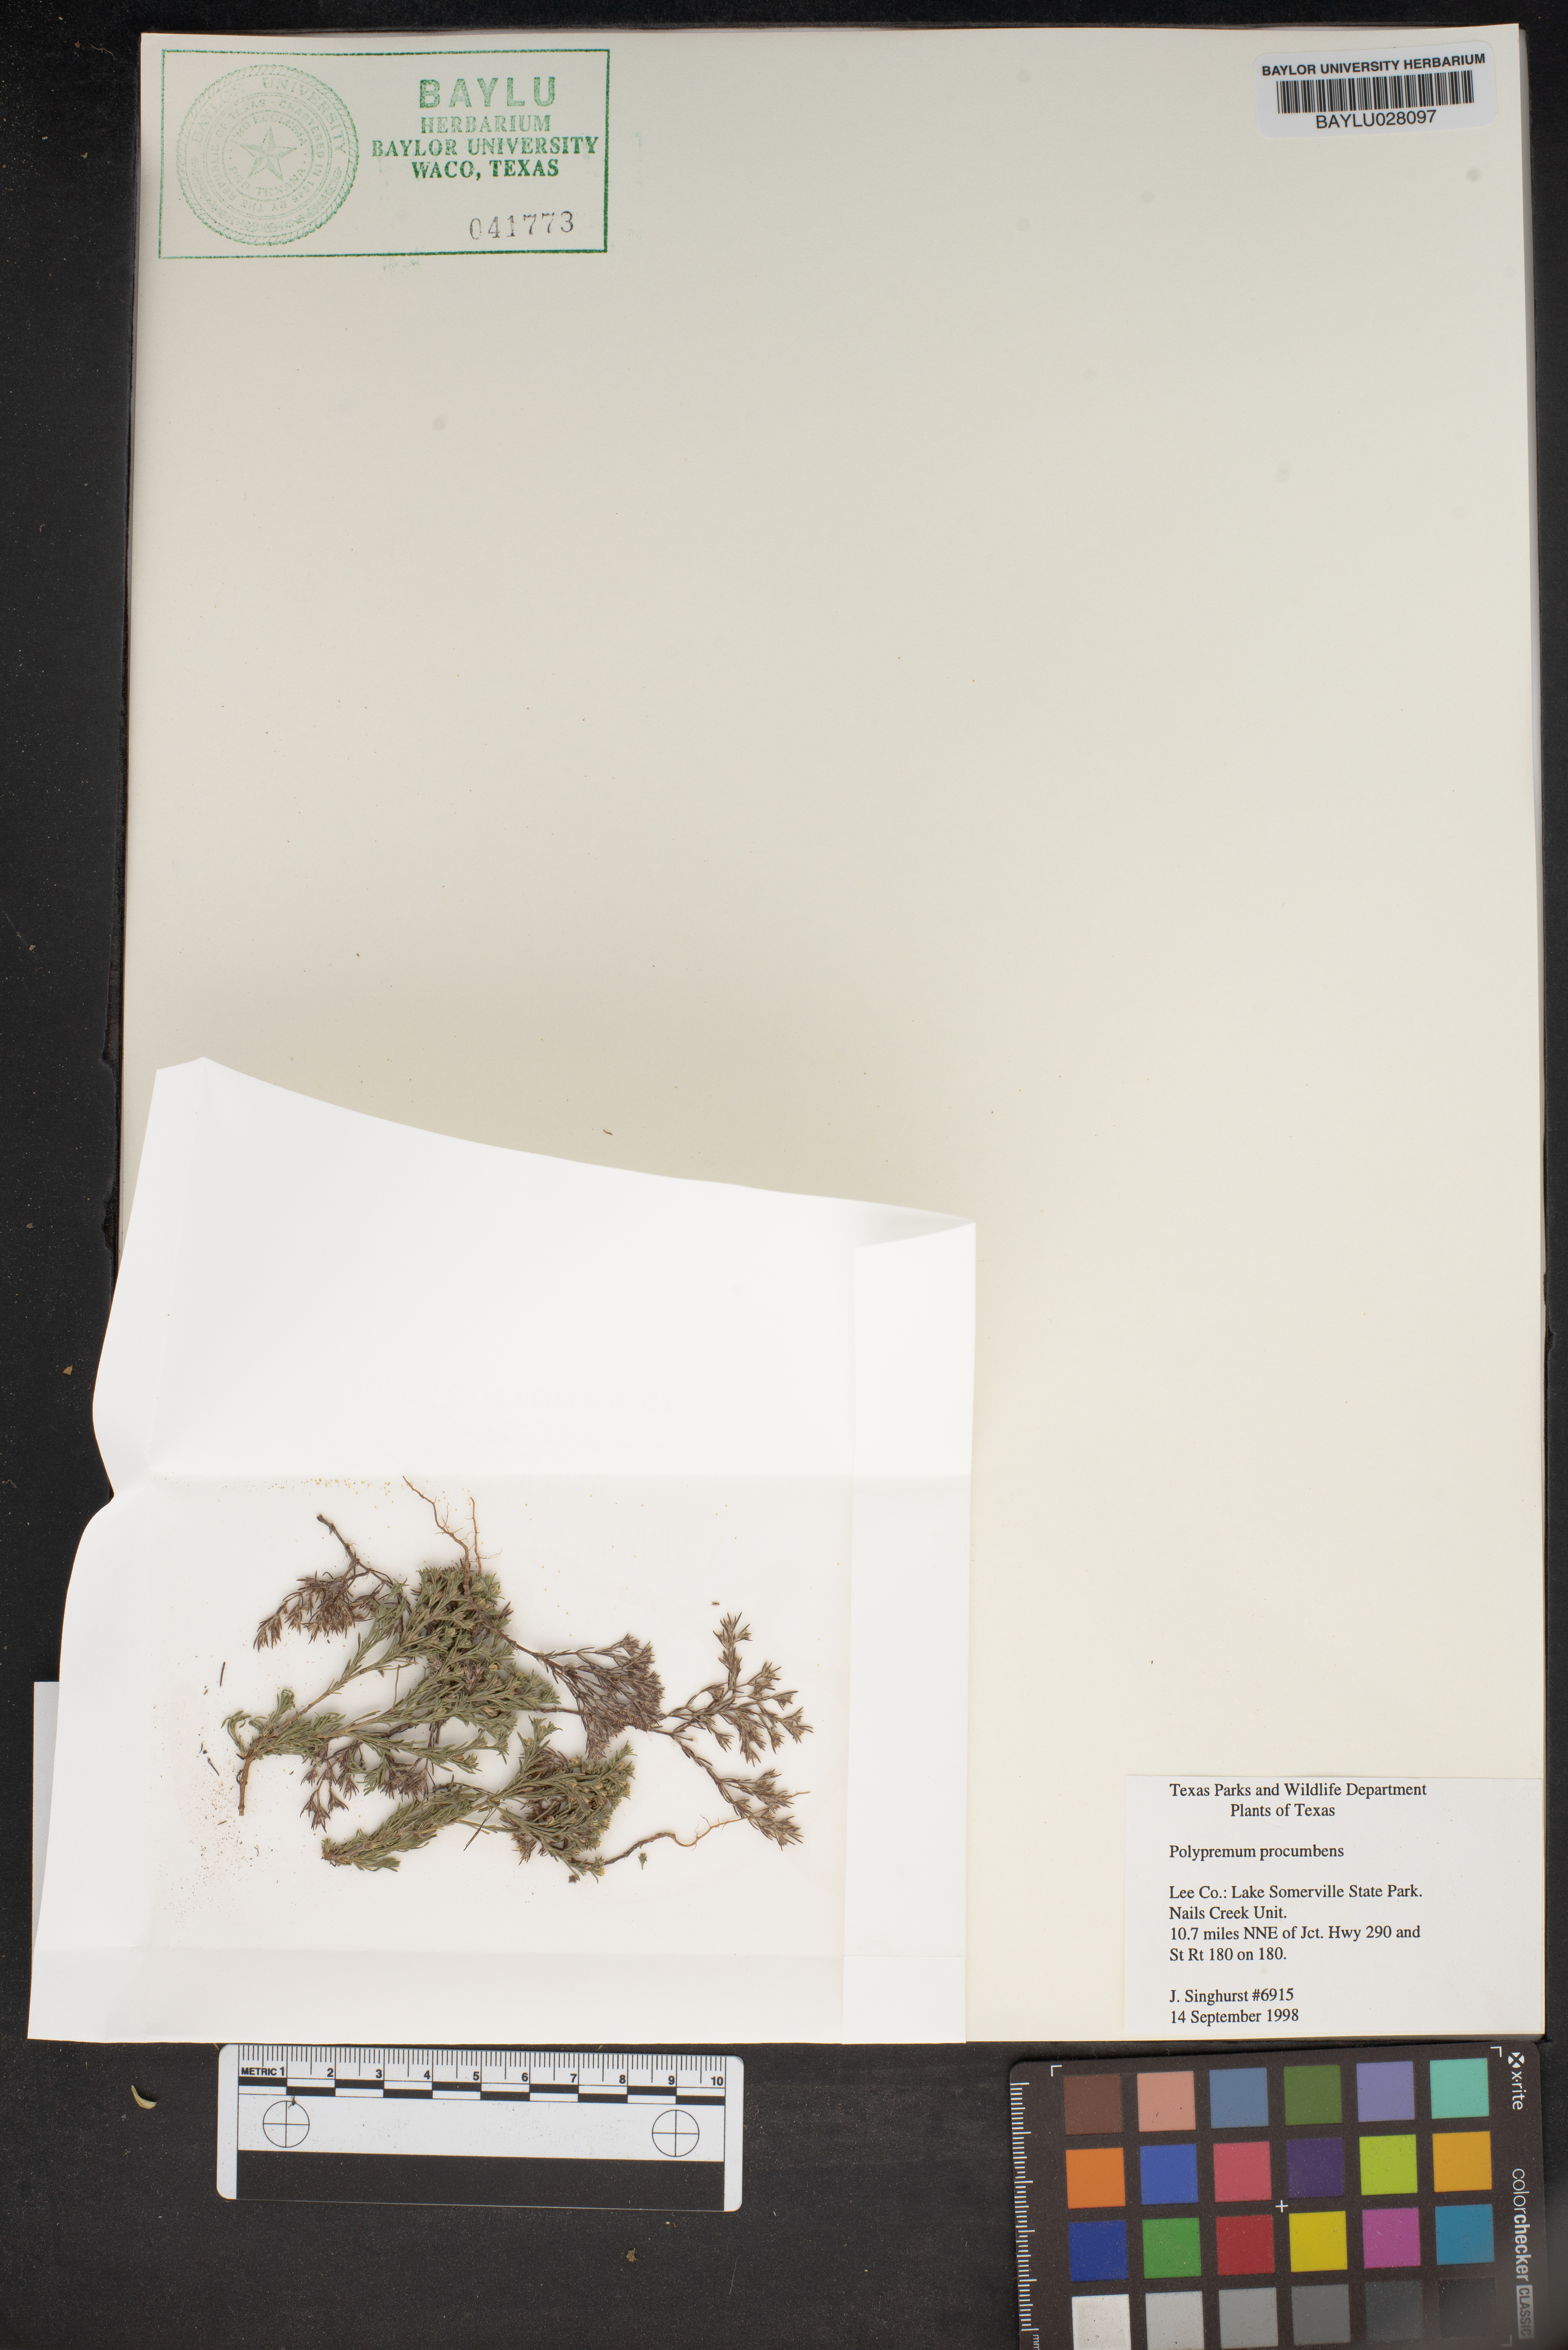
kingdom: Plantae
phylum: Tracheophyta
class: Magnoliopsida
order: Lamiales
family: Tetrachondraceae
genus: Polypremum
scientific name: Polypremum procumbens
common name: Juniper-leaf
